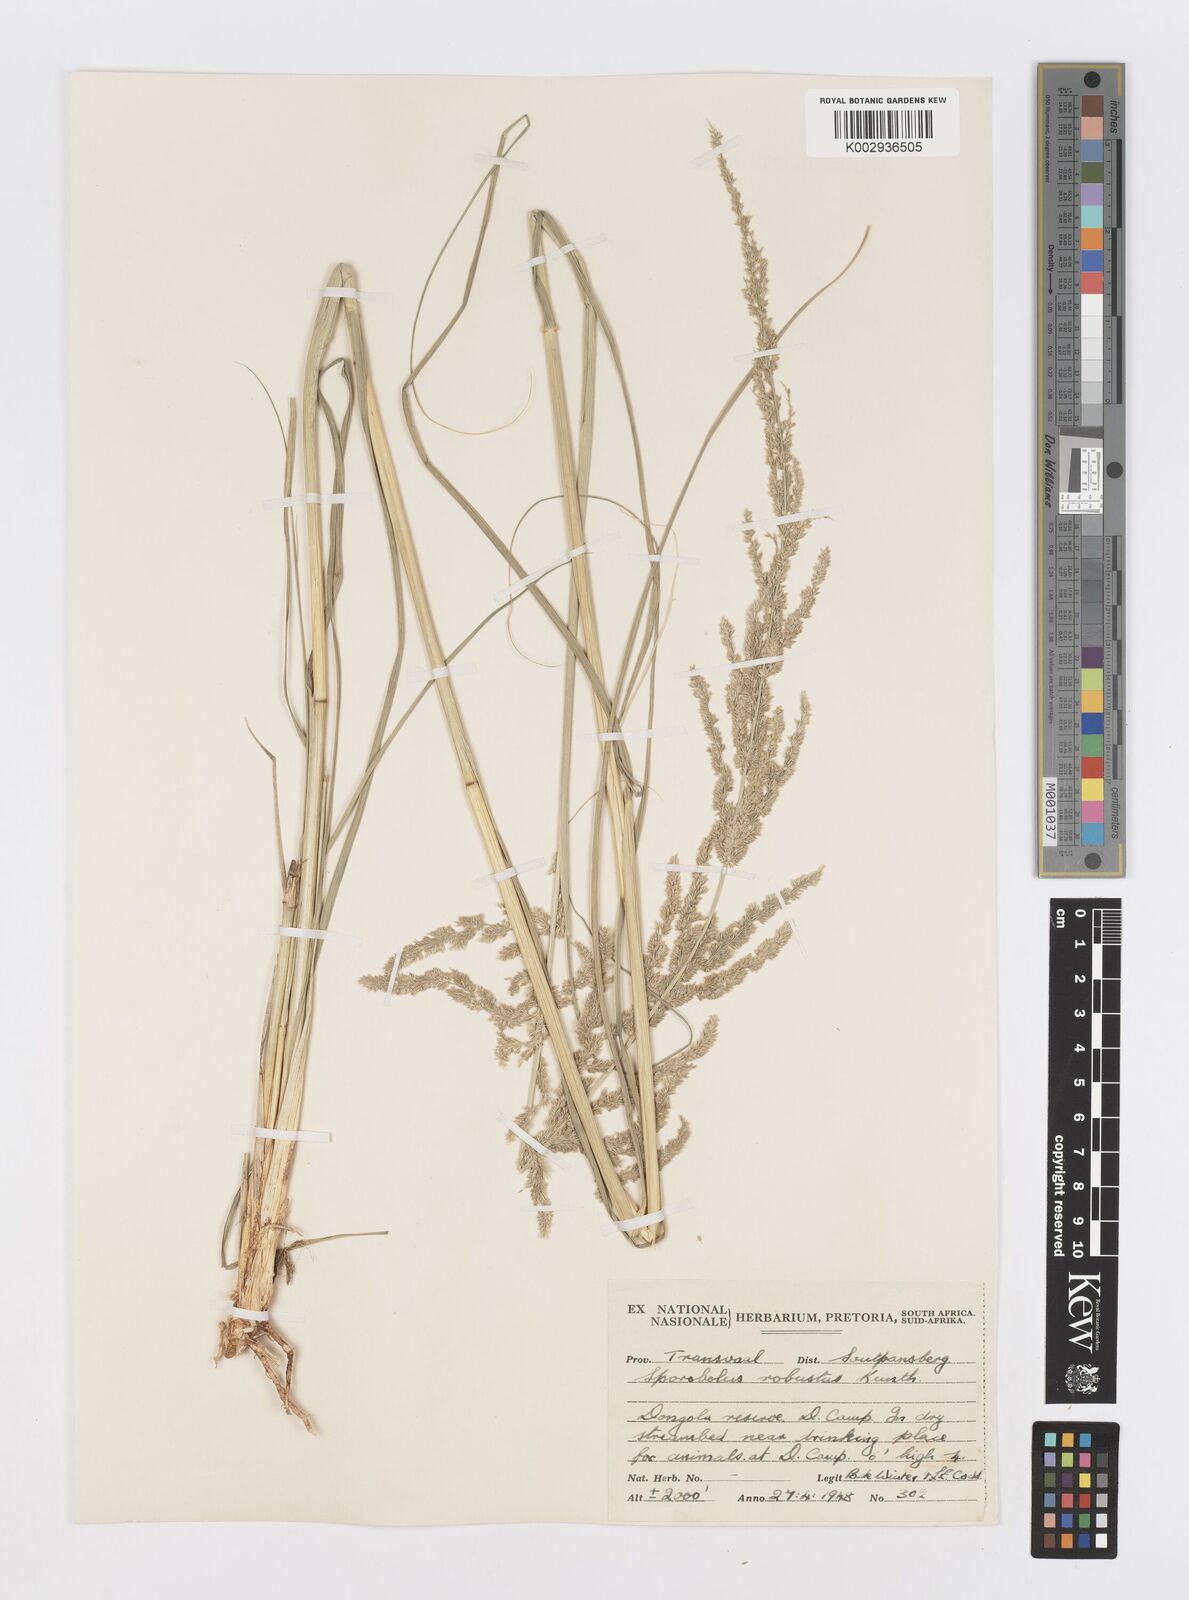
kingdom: Plantae
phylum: Tracheophyta
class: Liliopsida
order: Poales
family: Poaceae
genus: Sporobolus
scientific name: Sporobolus consimilis
